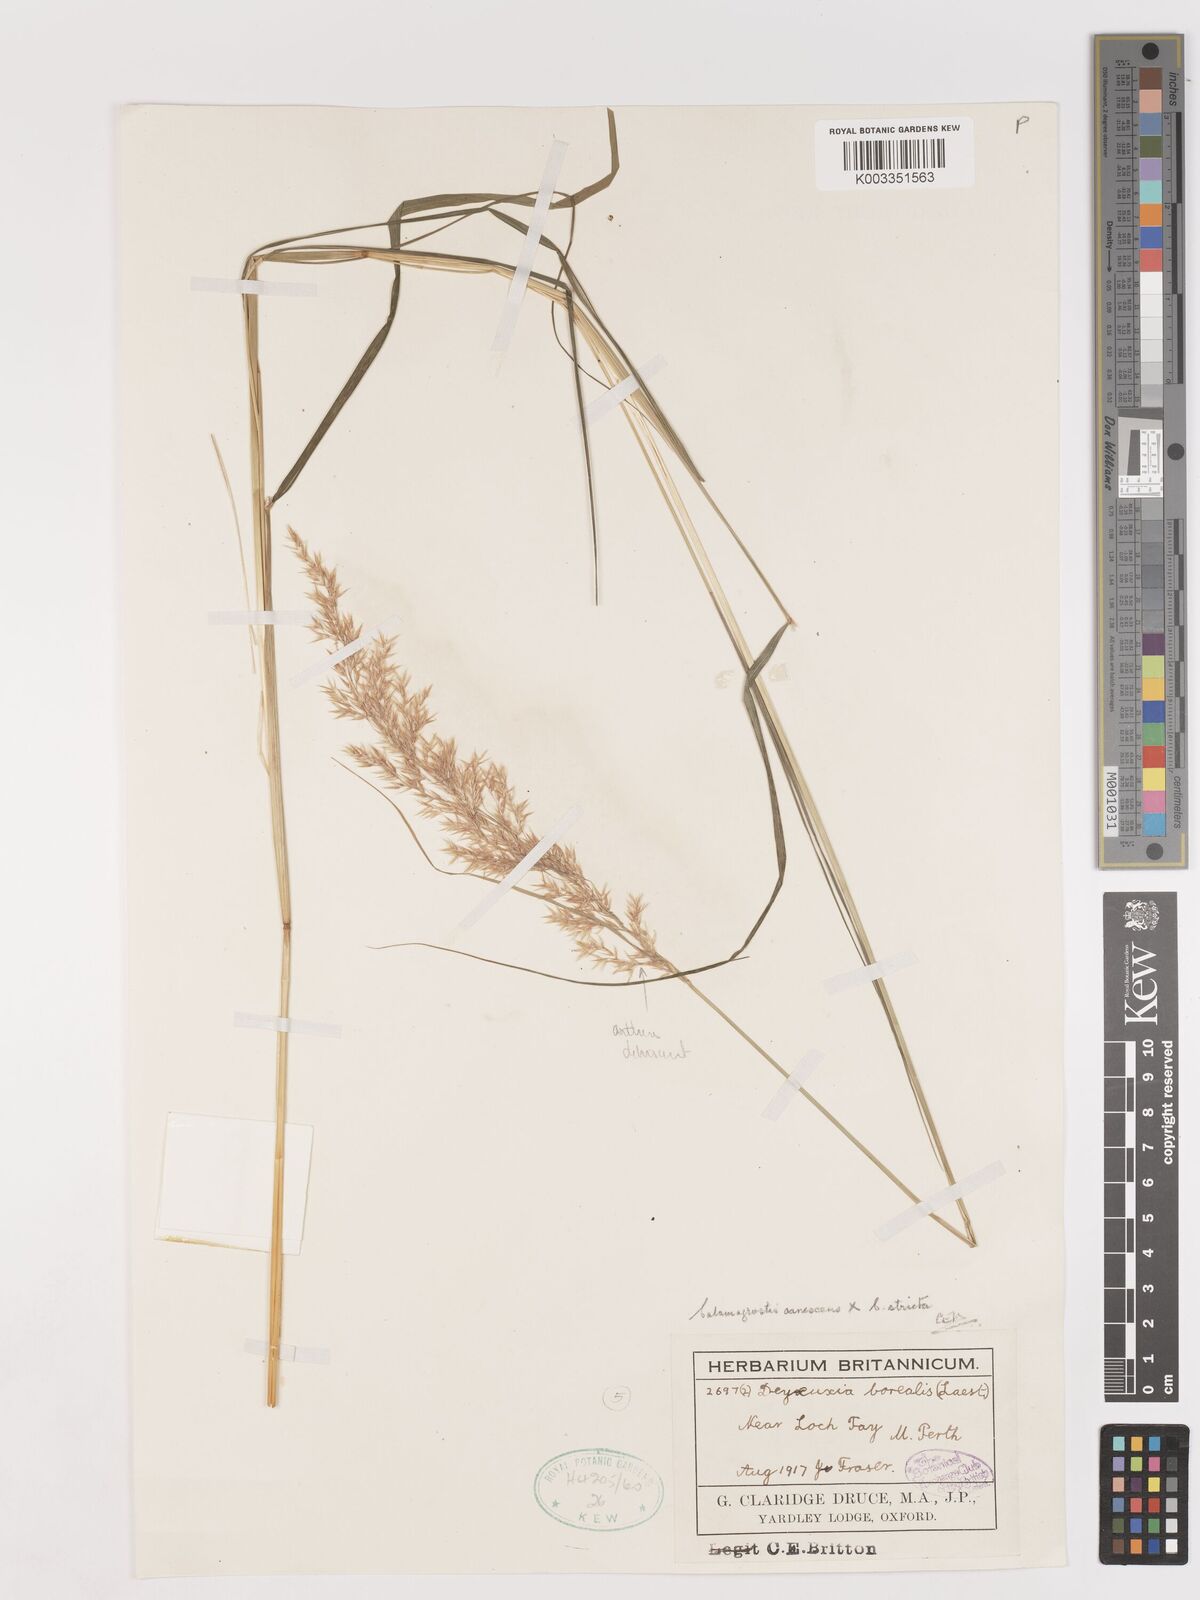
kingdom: Plantae
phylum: Tracheophyta
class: Liliopsida
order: Poales
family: Poaceae
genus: Calamagrostis
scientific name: Calamagrostis canescens
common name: Purple small-reed
